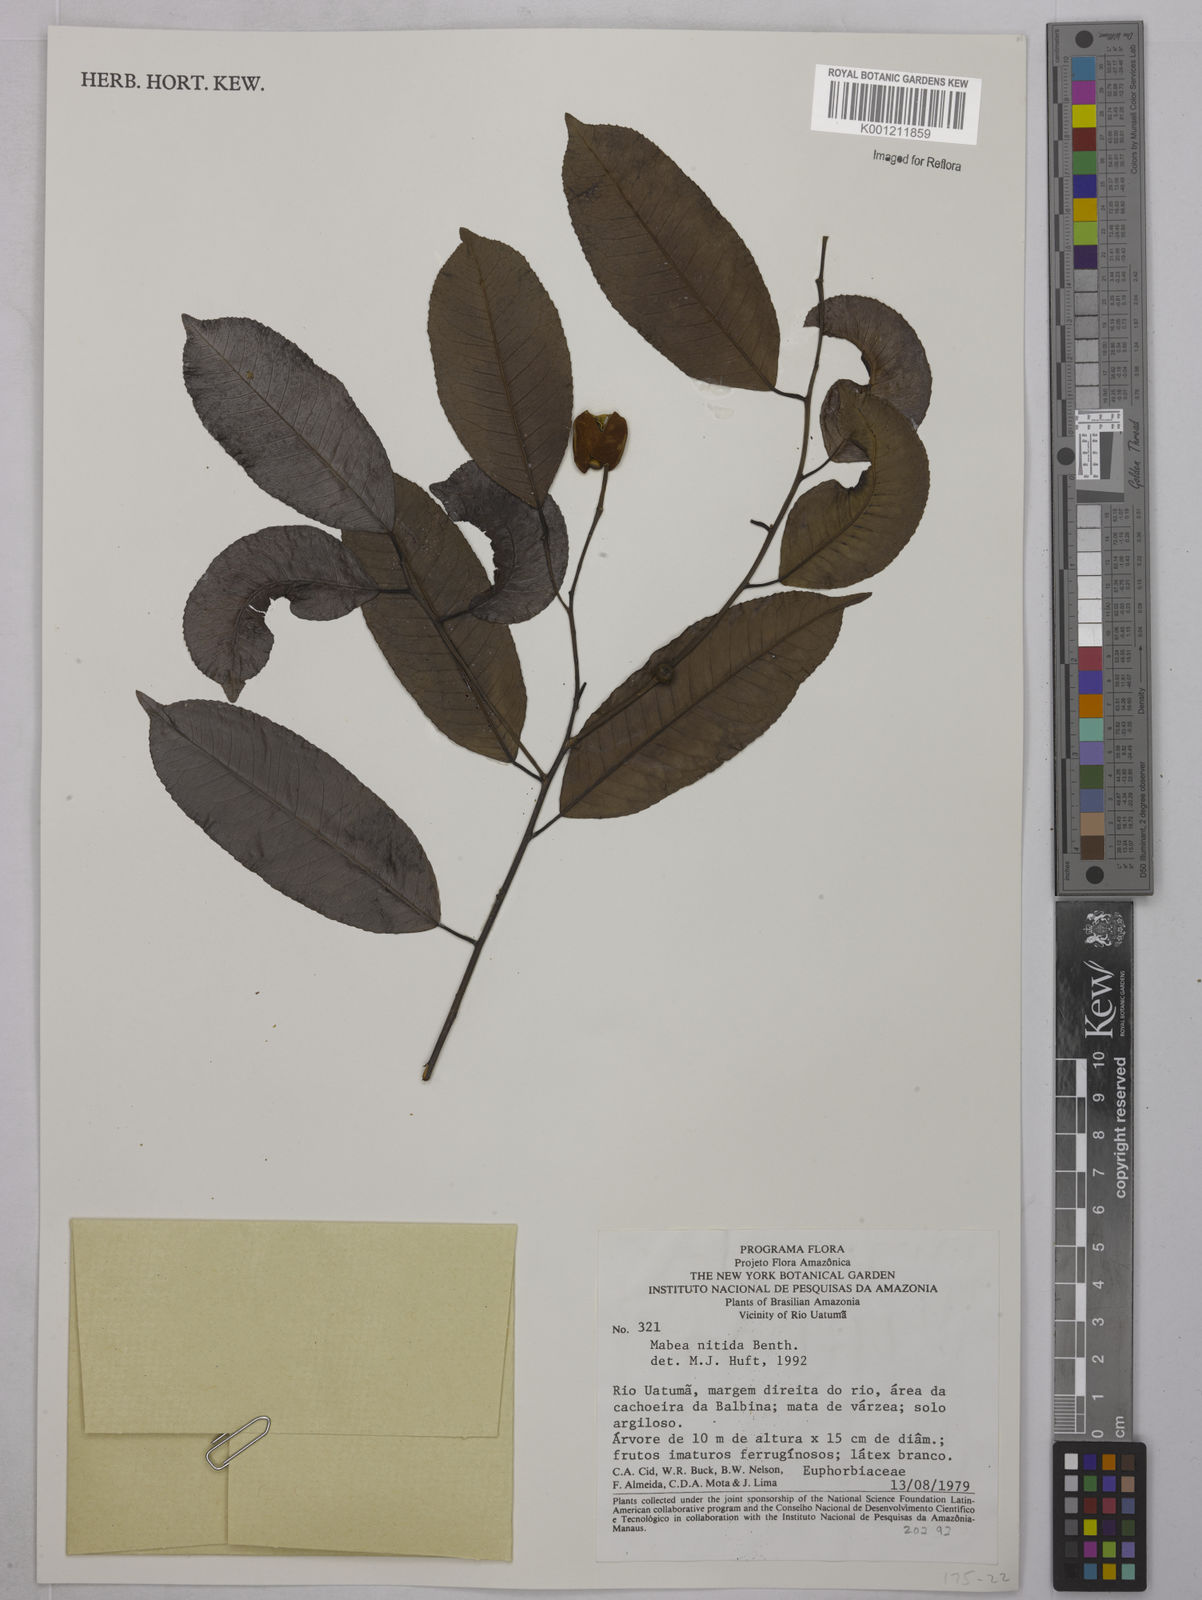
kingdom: Plantae
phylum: Tracheophyta
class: Magnoliopsida
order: Malpighiales
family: Euphorbiaceae
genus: Mabea
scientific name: Mabea nitida
